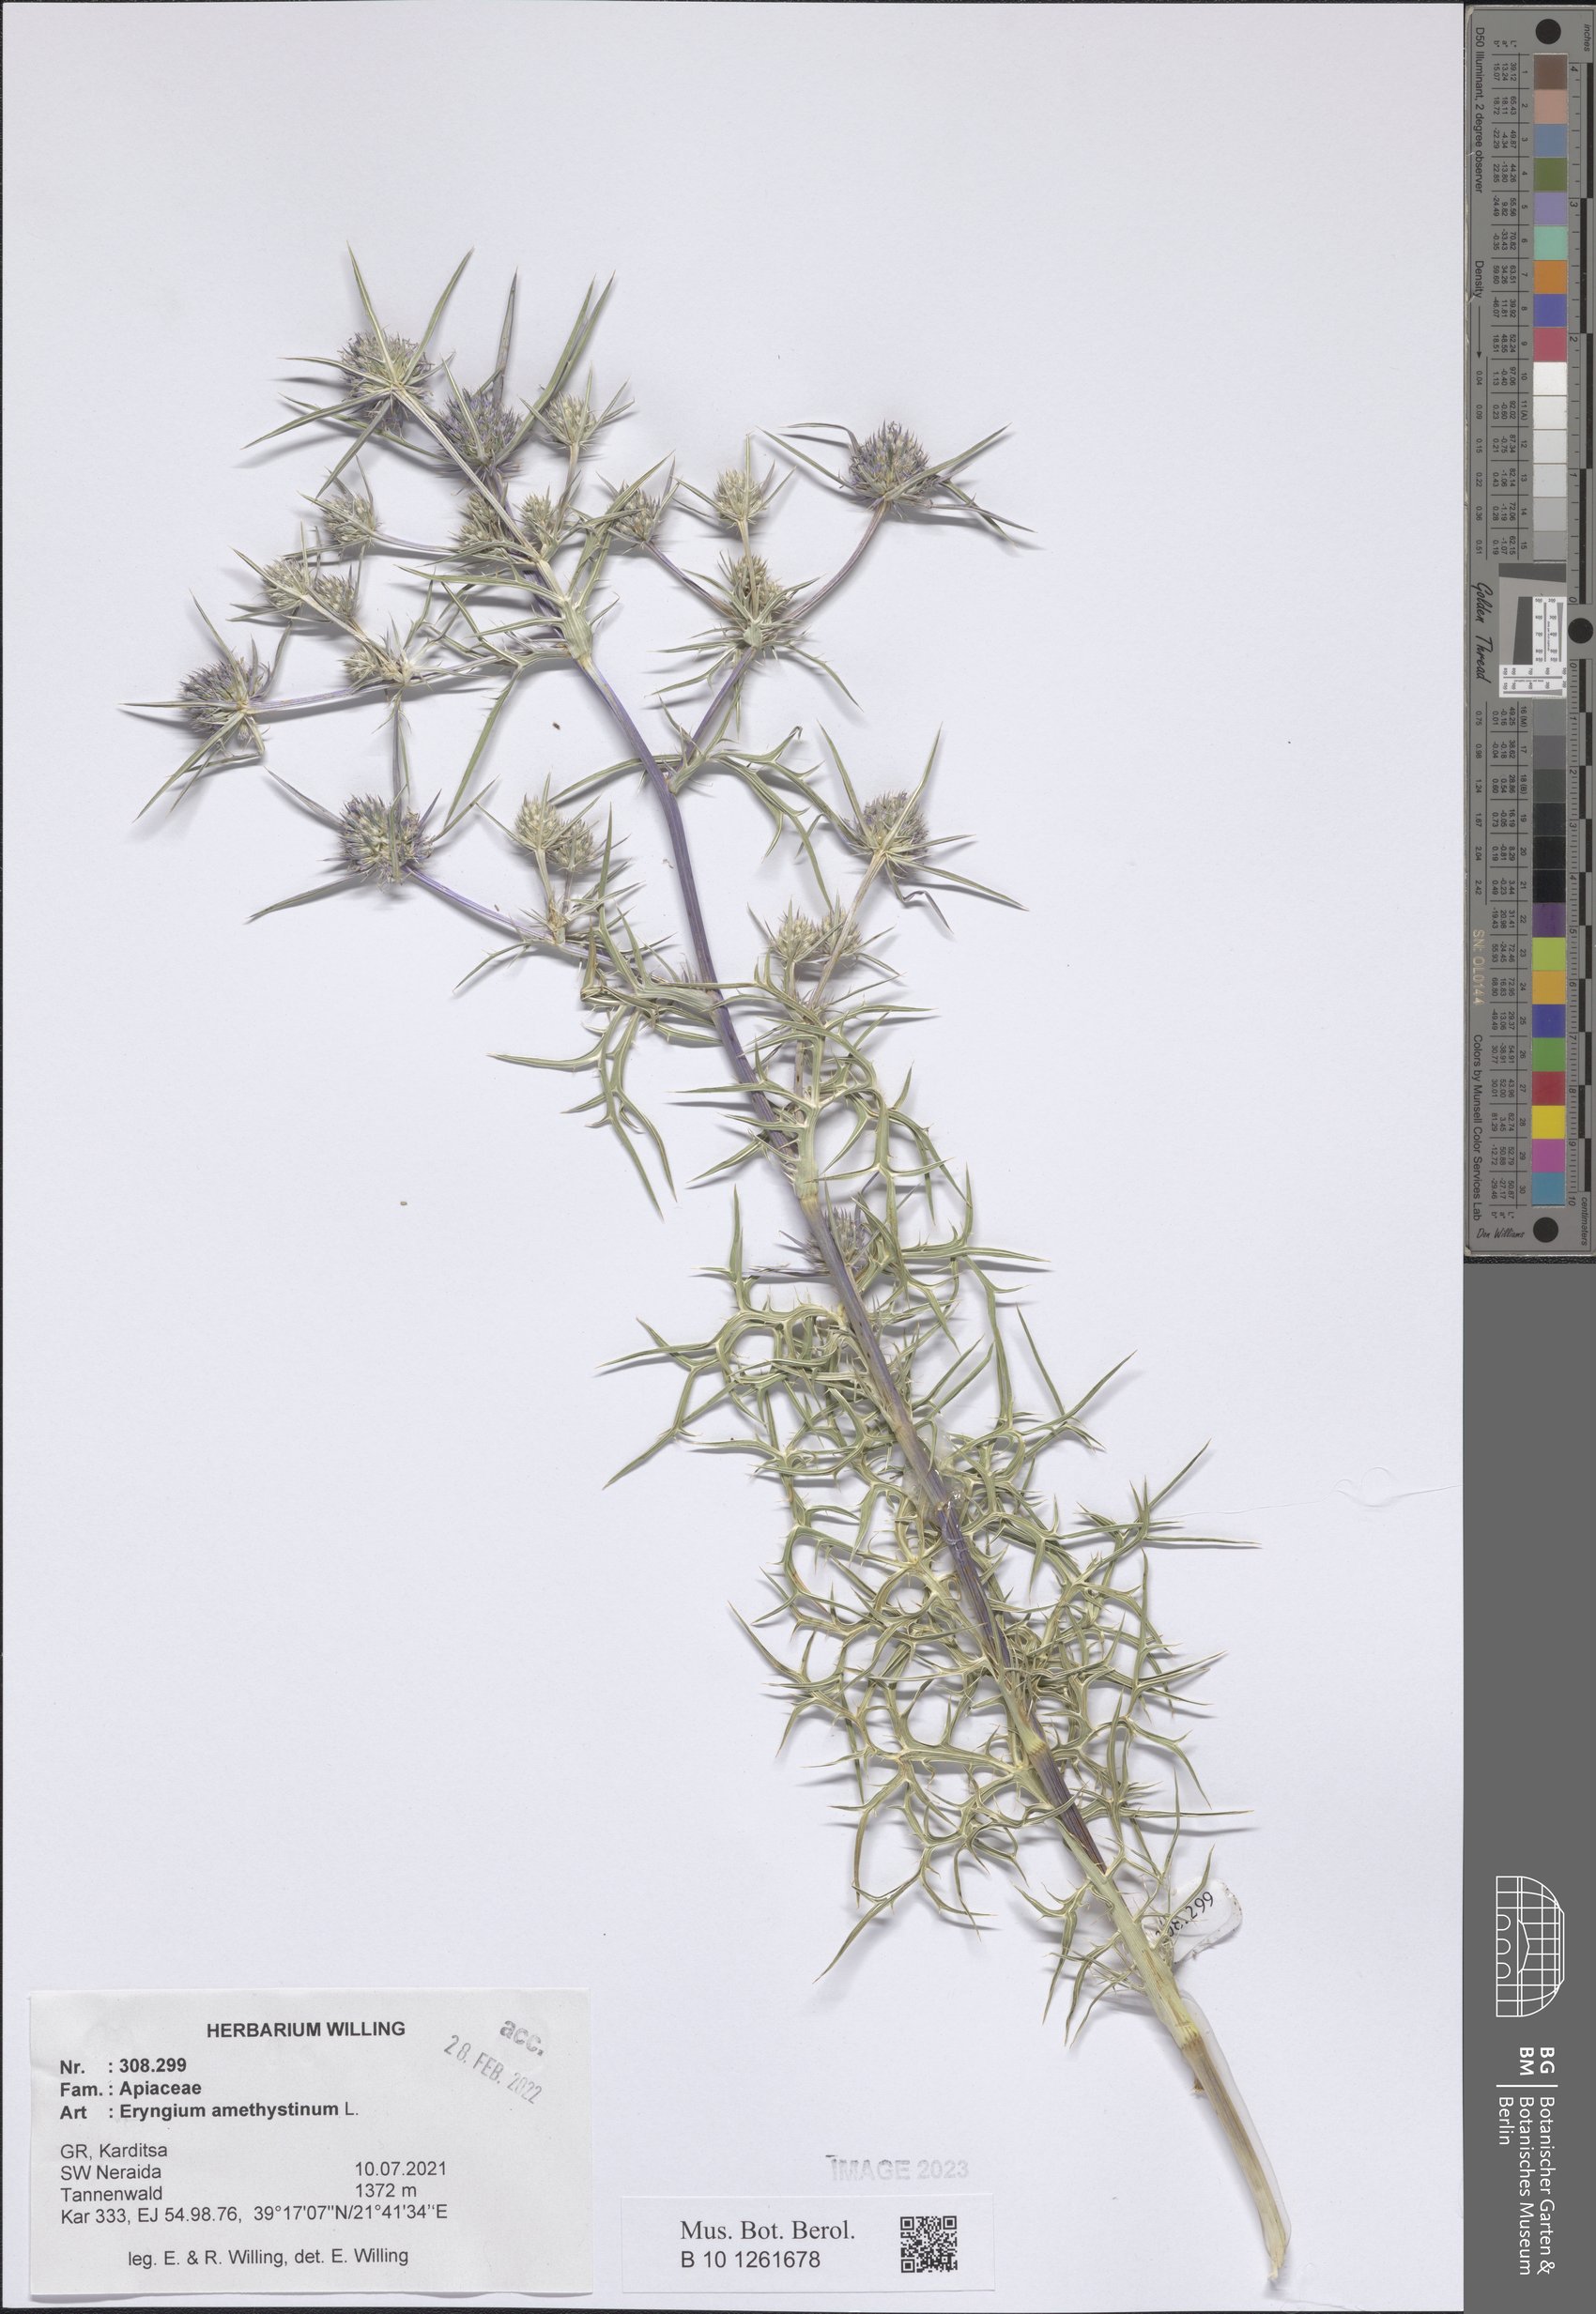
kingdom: Plantae
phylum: Tracheophyta
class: Magnoliopsida
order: Apiales
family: Apiaceae
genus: Eryngium
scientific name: Eryngium amethystinum
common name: Amethyst eryngo
